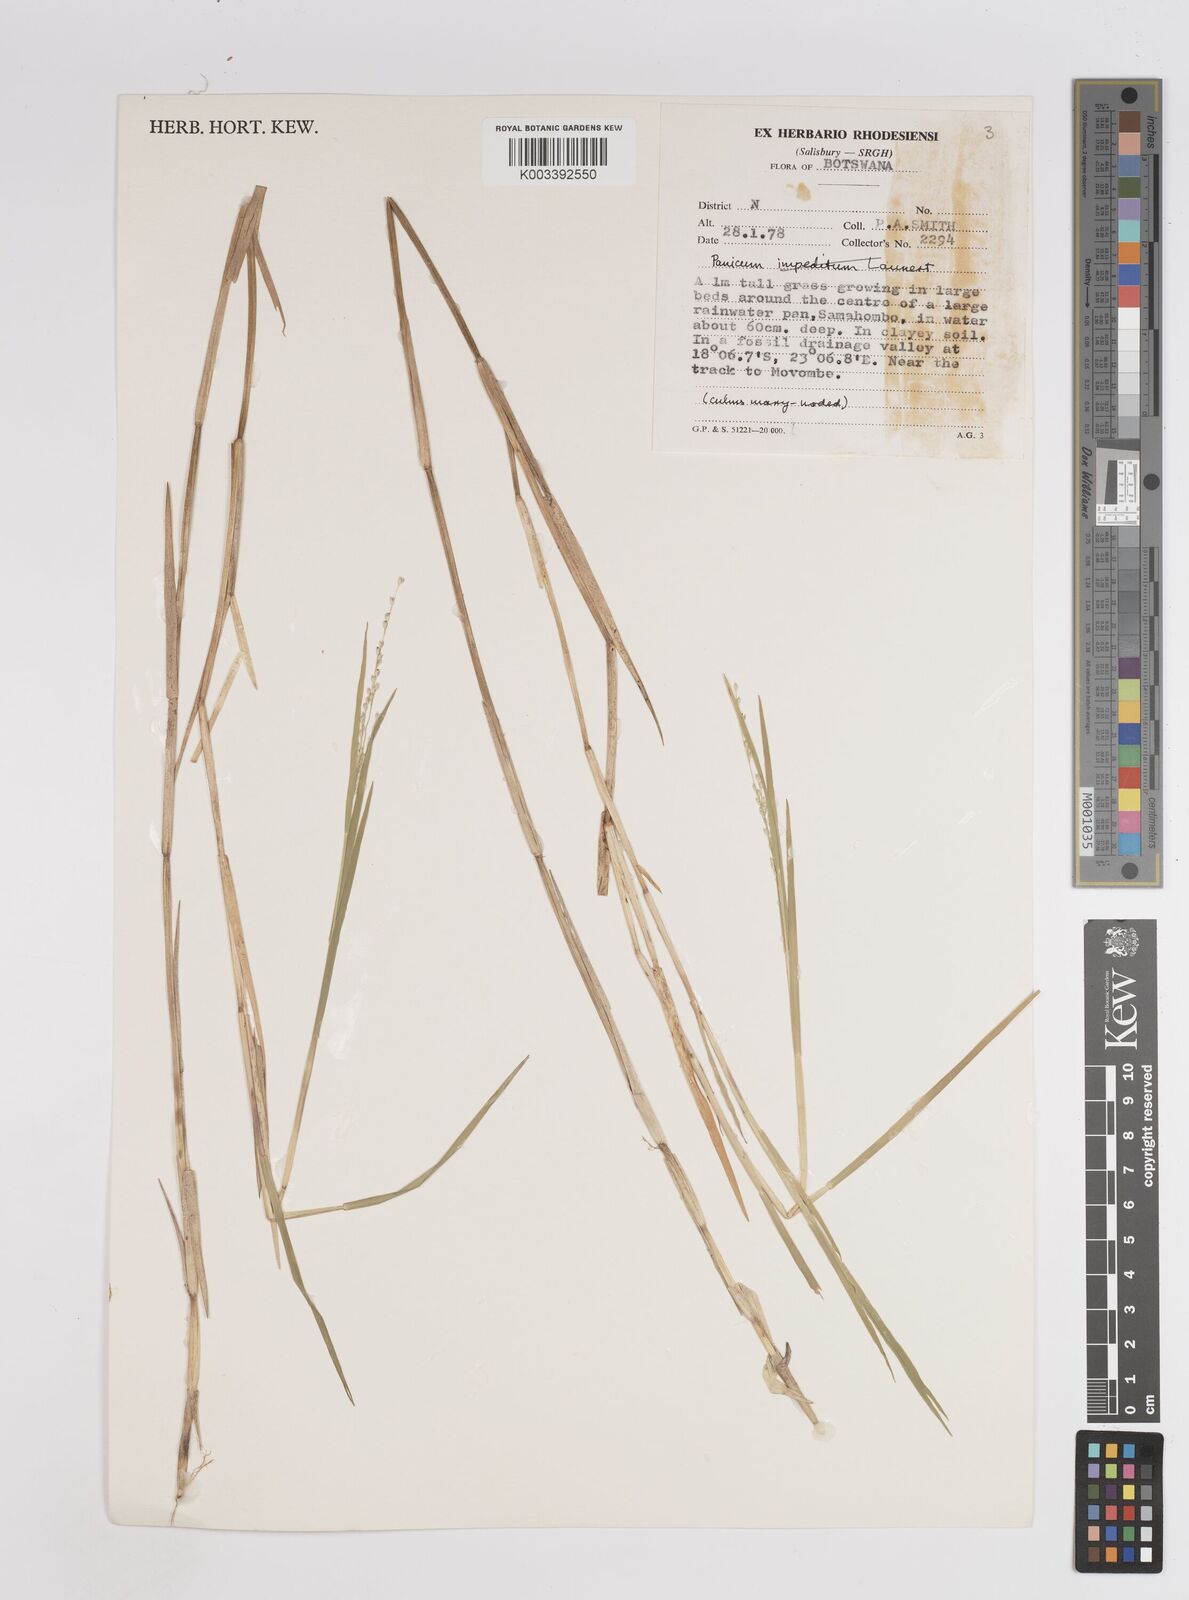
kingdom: Plantae
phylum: Tracheophyta
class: Liliopsida
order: Poales
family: Poaceae
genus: Panicum
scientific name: Panicum hygrocharis
